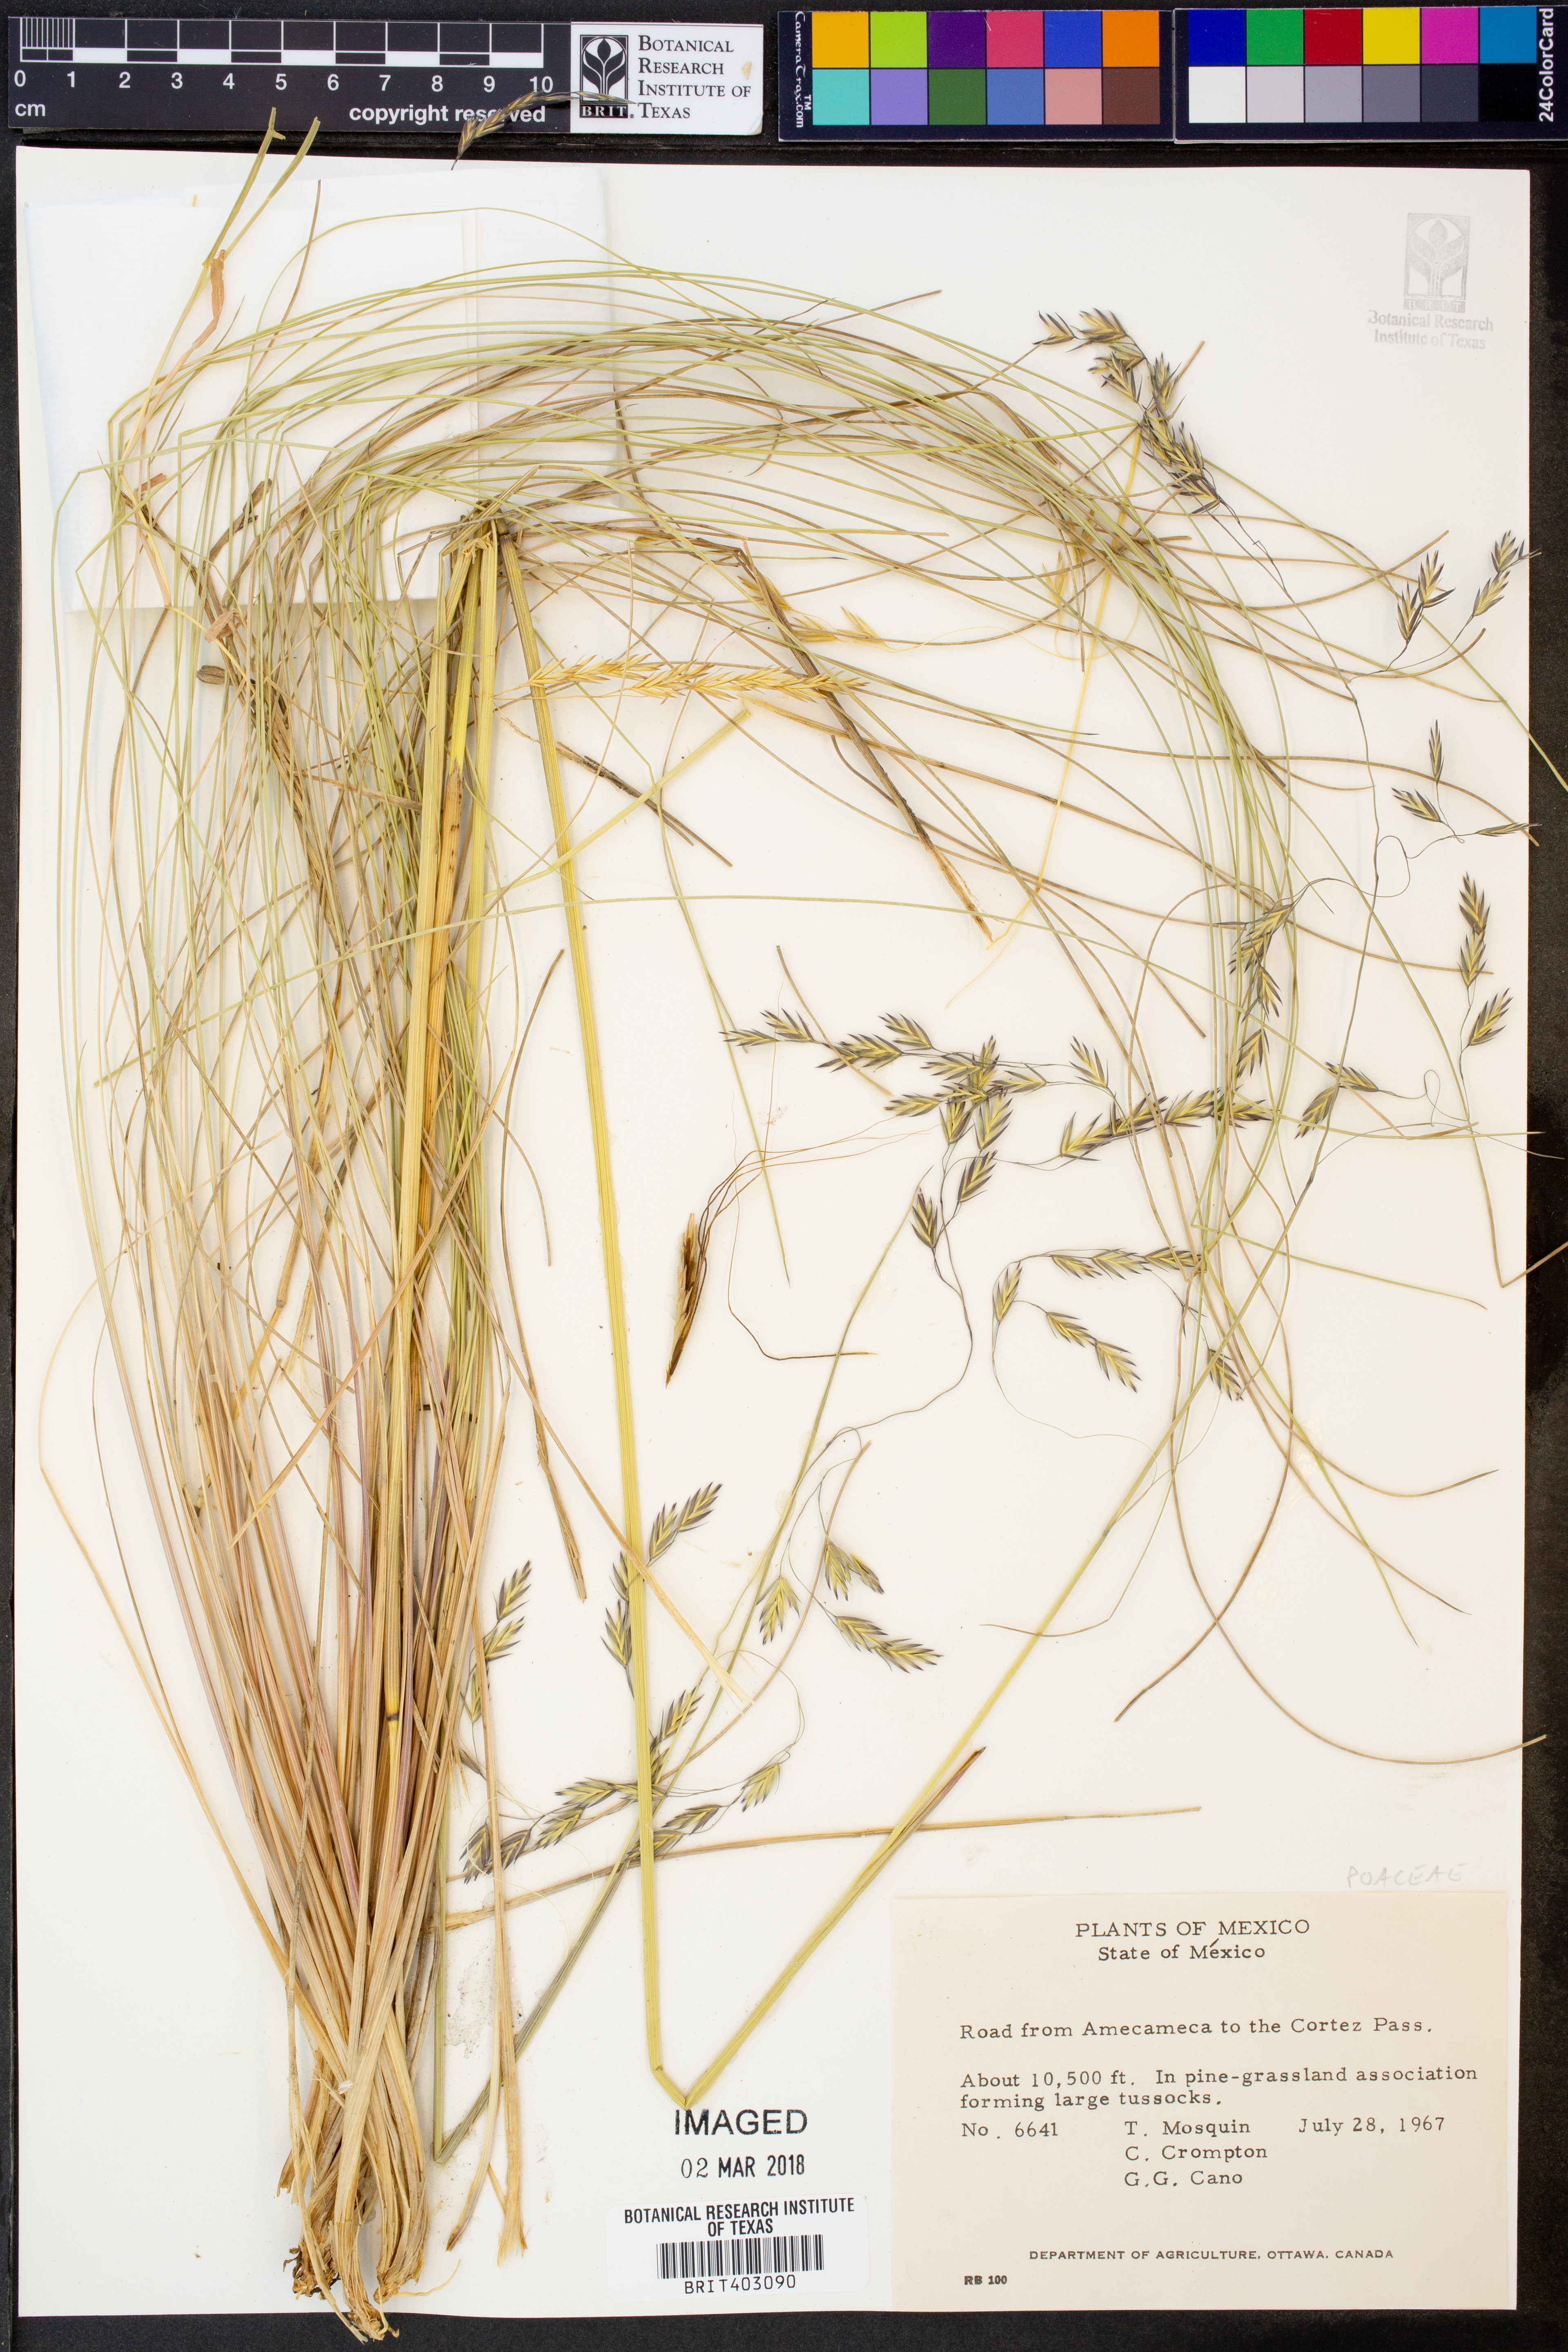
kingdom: Plantae
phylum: Tracheophyta
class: Liliopsida
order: Poales
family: Poaceae
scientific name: Poaceae
